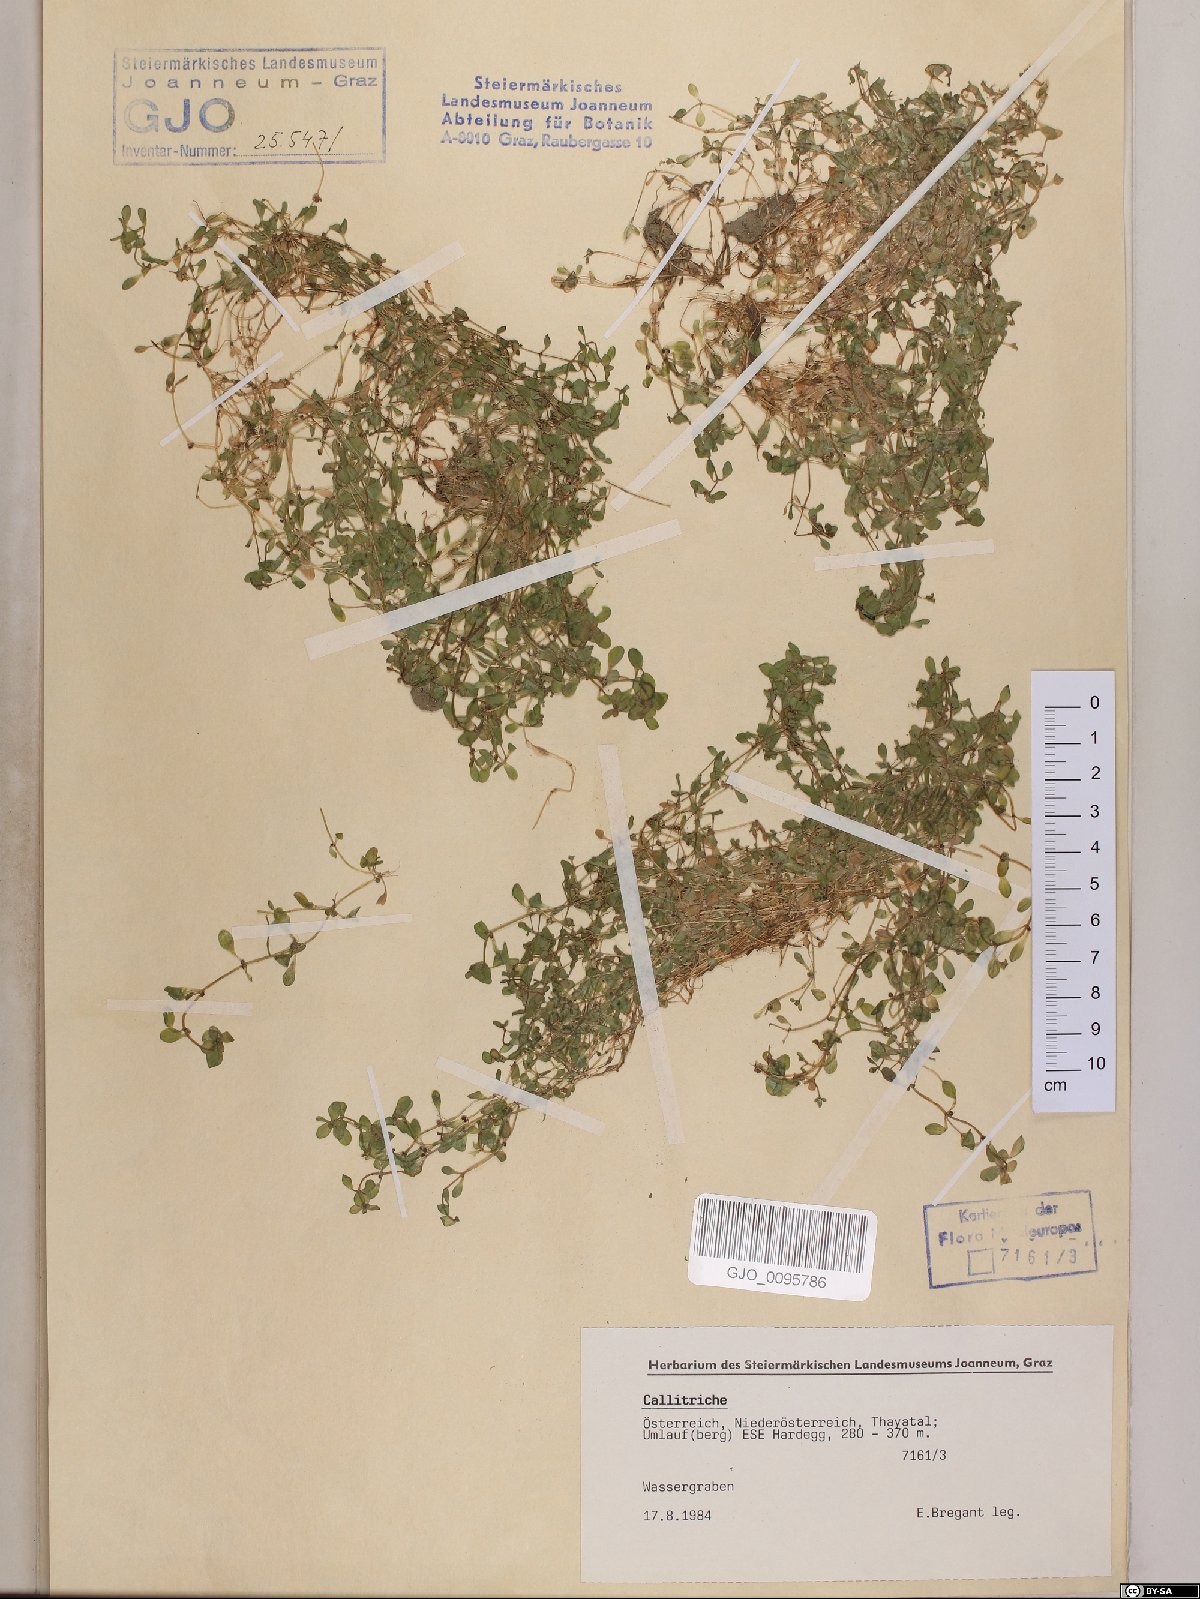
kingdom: Plantae
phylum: Tracheophyta
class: Magnoliopsida
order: Lamiales
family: Plantaginaceae
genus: Callitriche
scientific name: Callitriche
